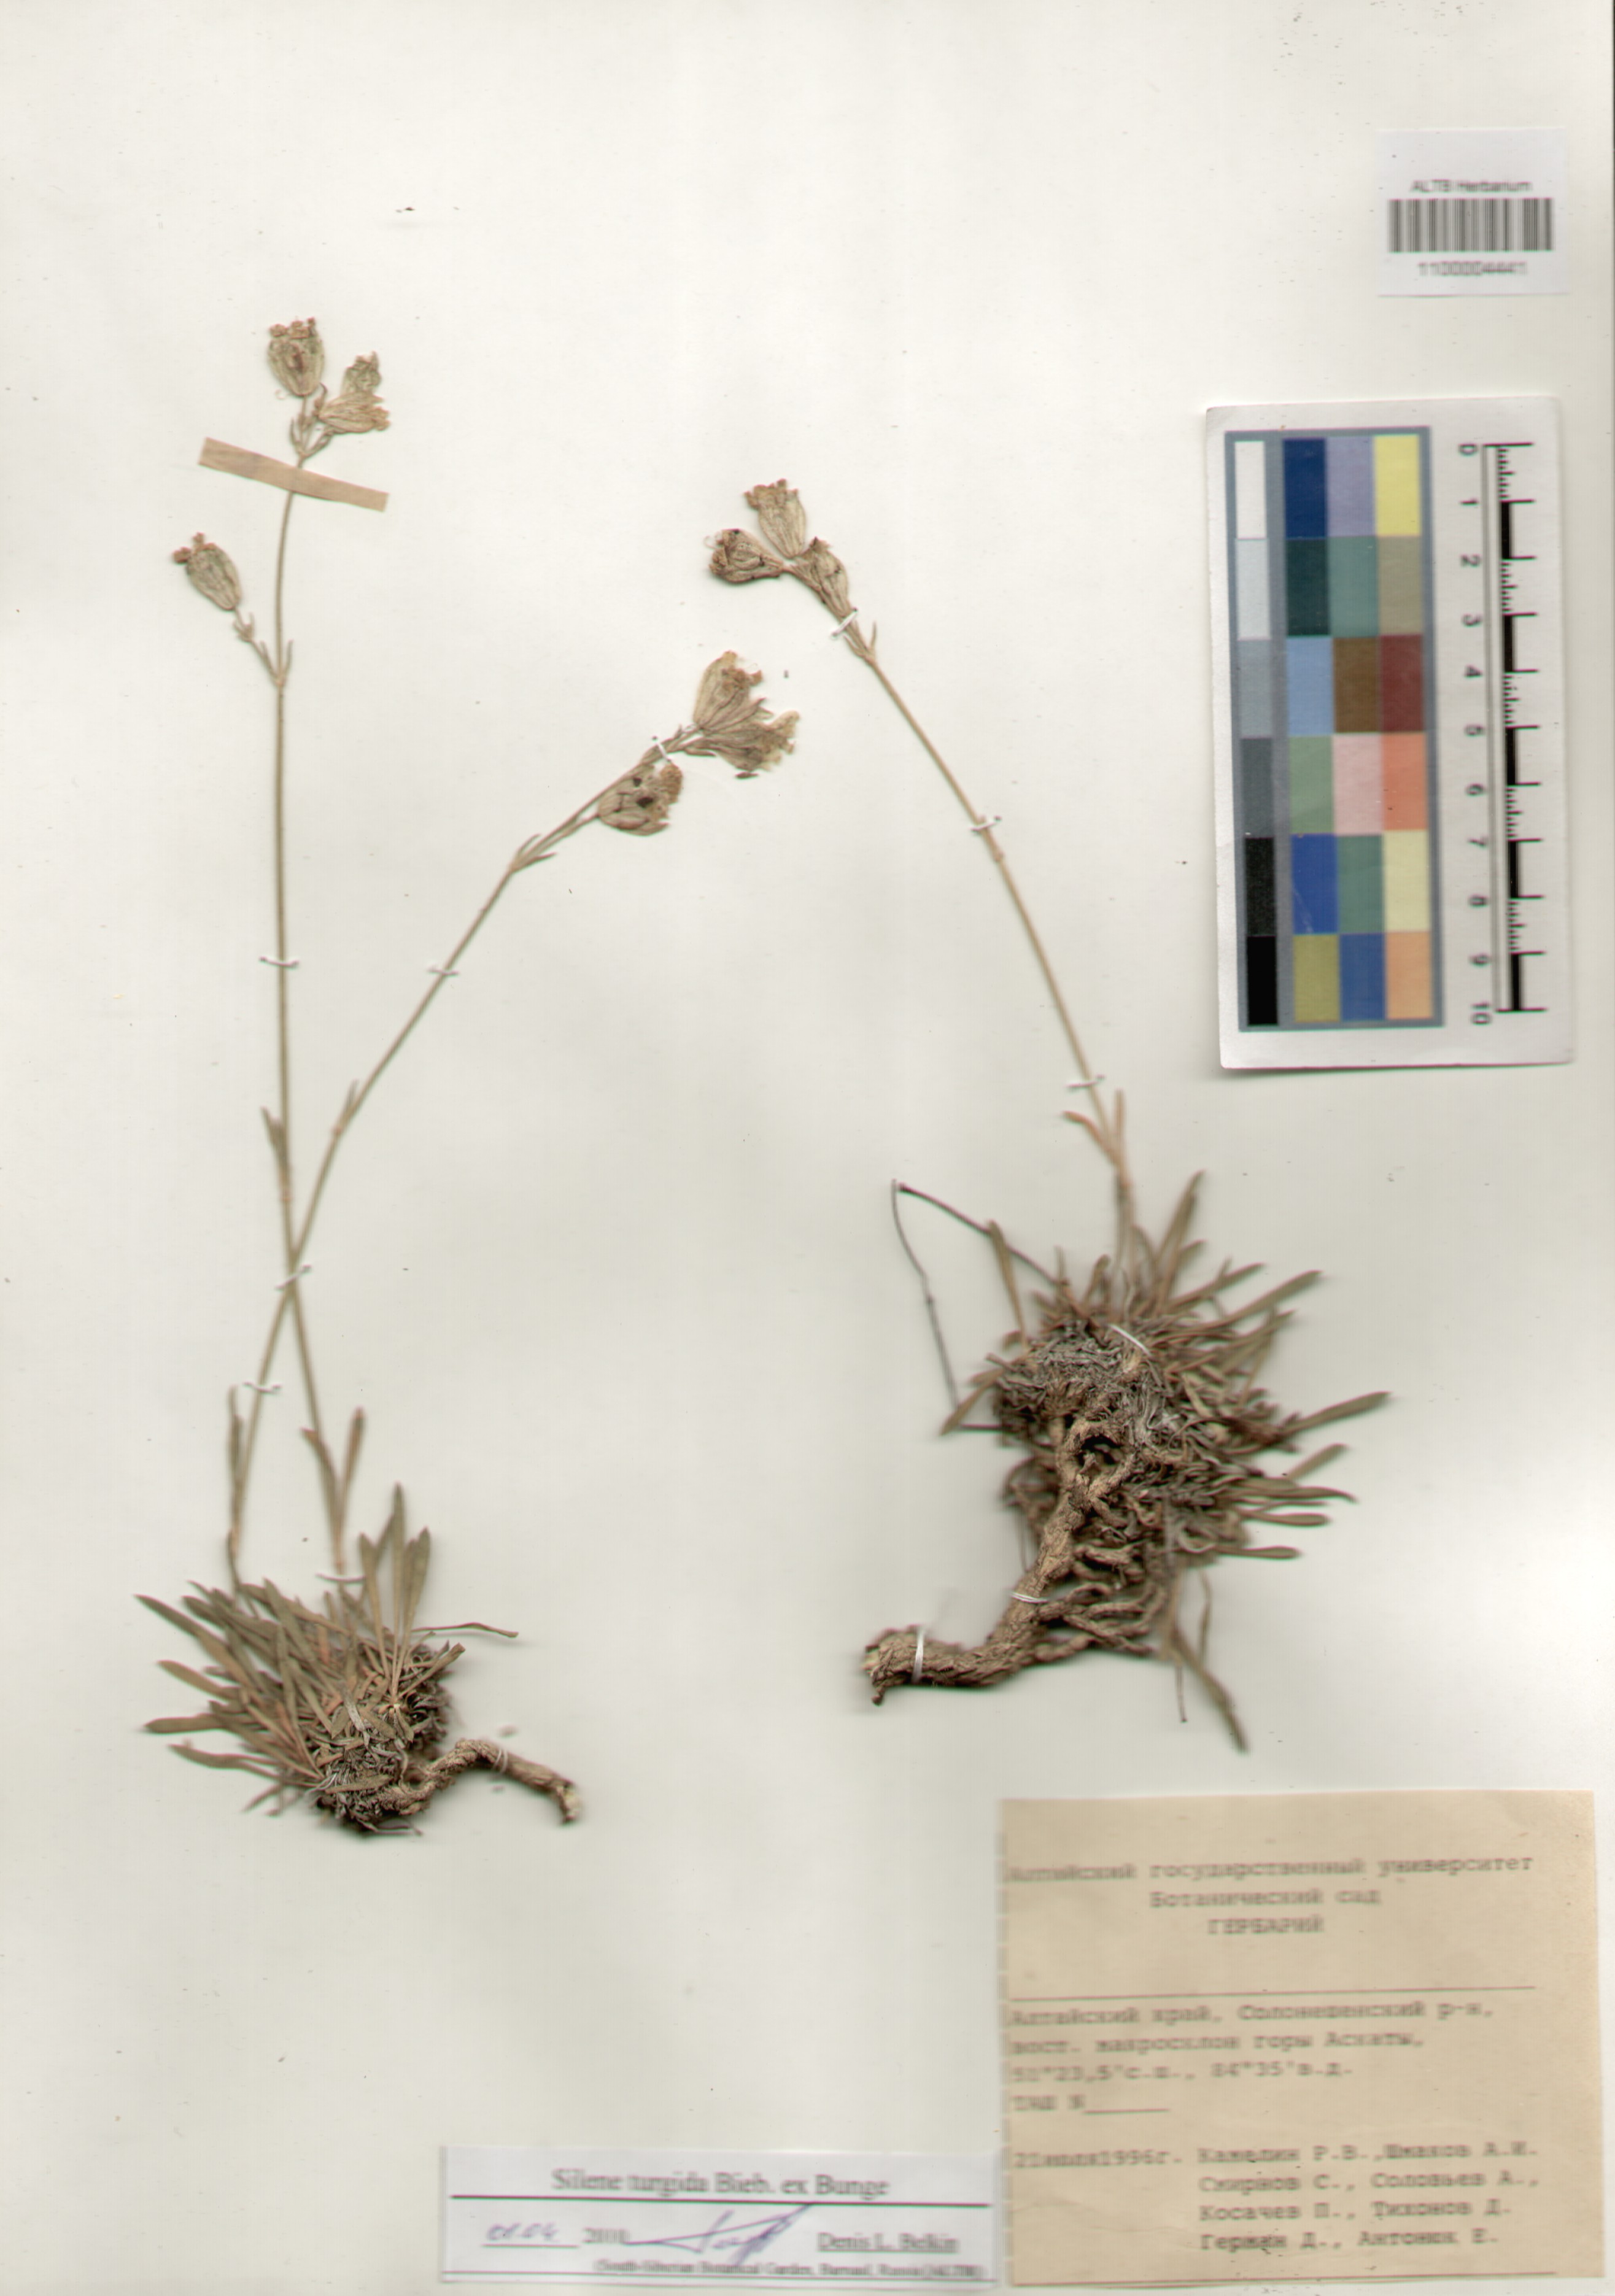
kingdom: Plantae
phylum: Tracheophyta
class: Magnoliopsida
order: Caryophyllales
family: Caryophyllaceae
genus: Silene
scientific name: Silene turgida
